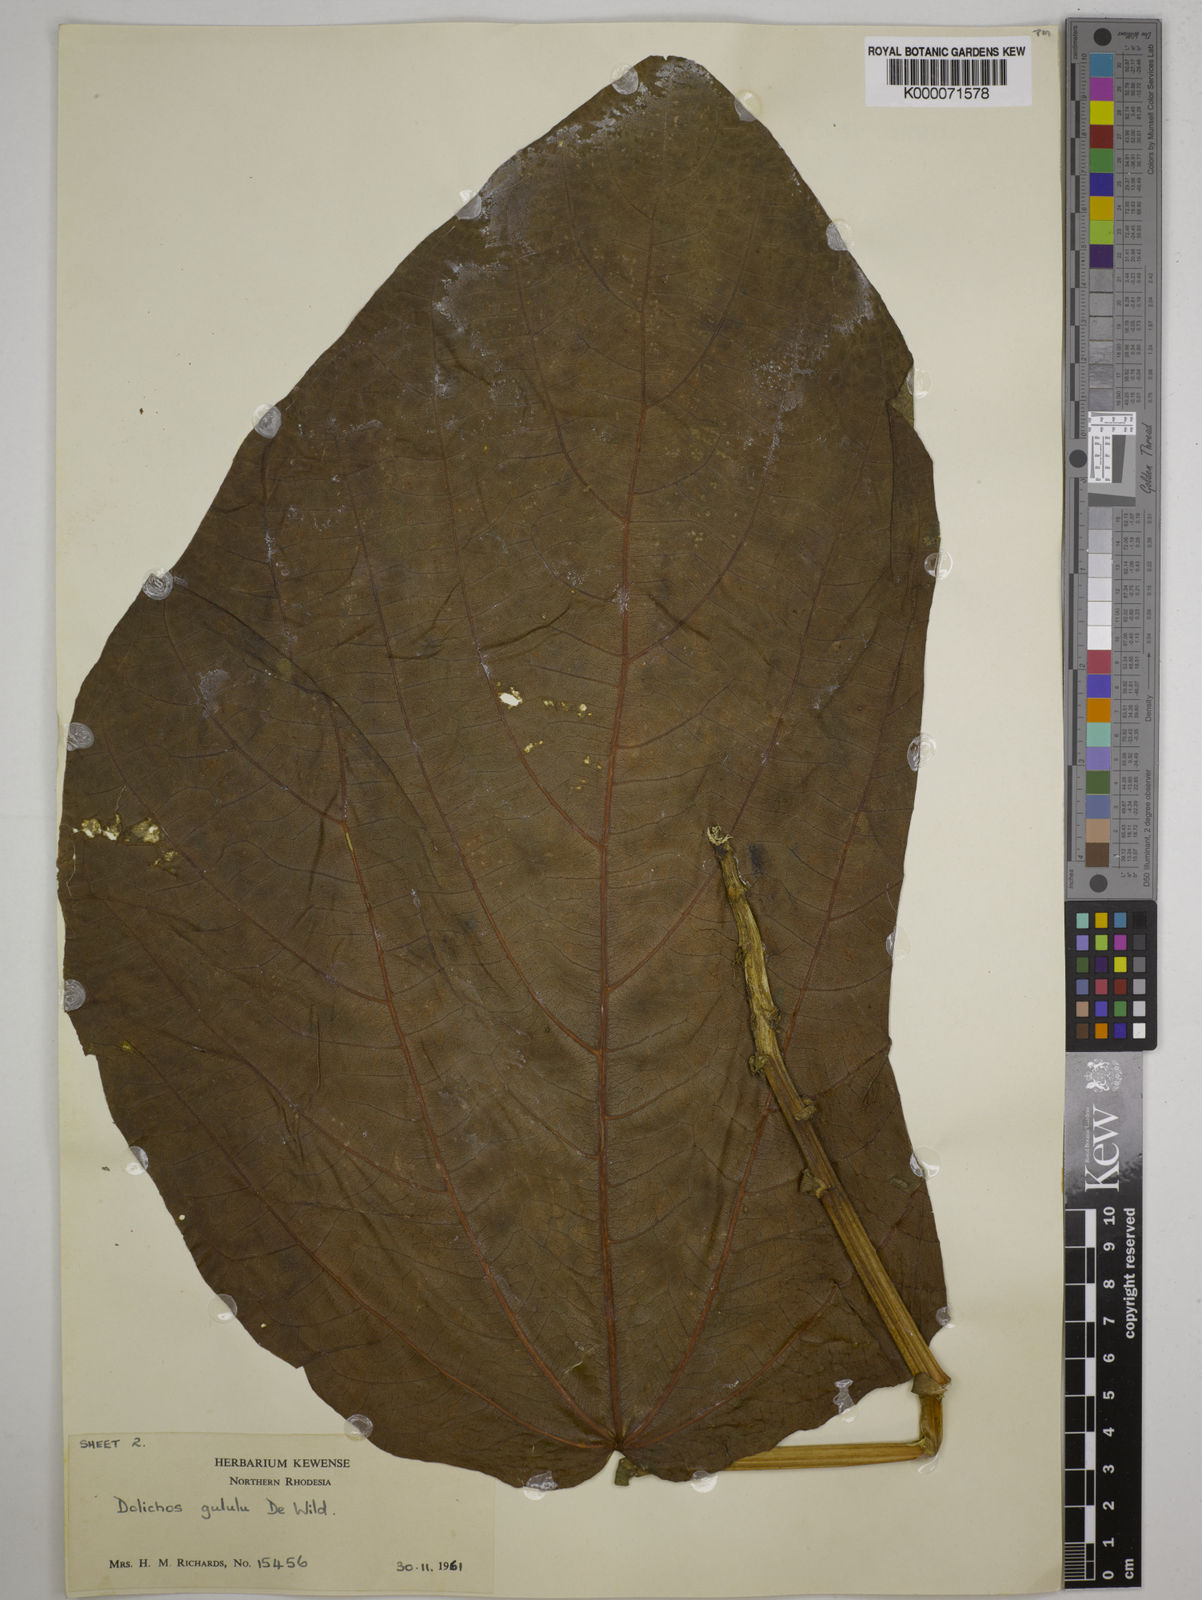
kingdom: Plantae
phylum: Tracheophyta
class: Magnoliopsida
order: Fabales
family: Fabaceae
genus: Dolichos
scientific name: Dolichos gululu
